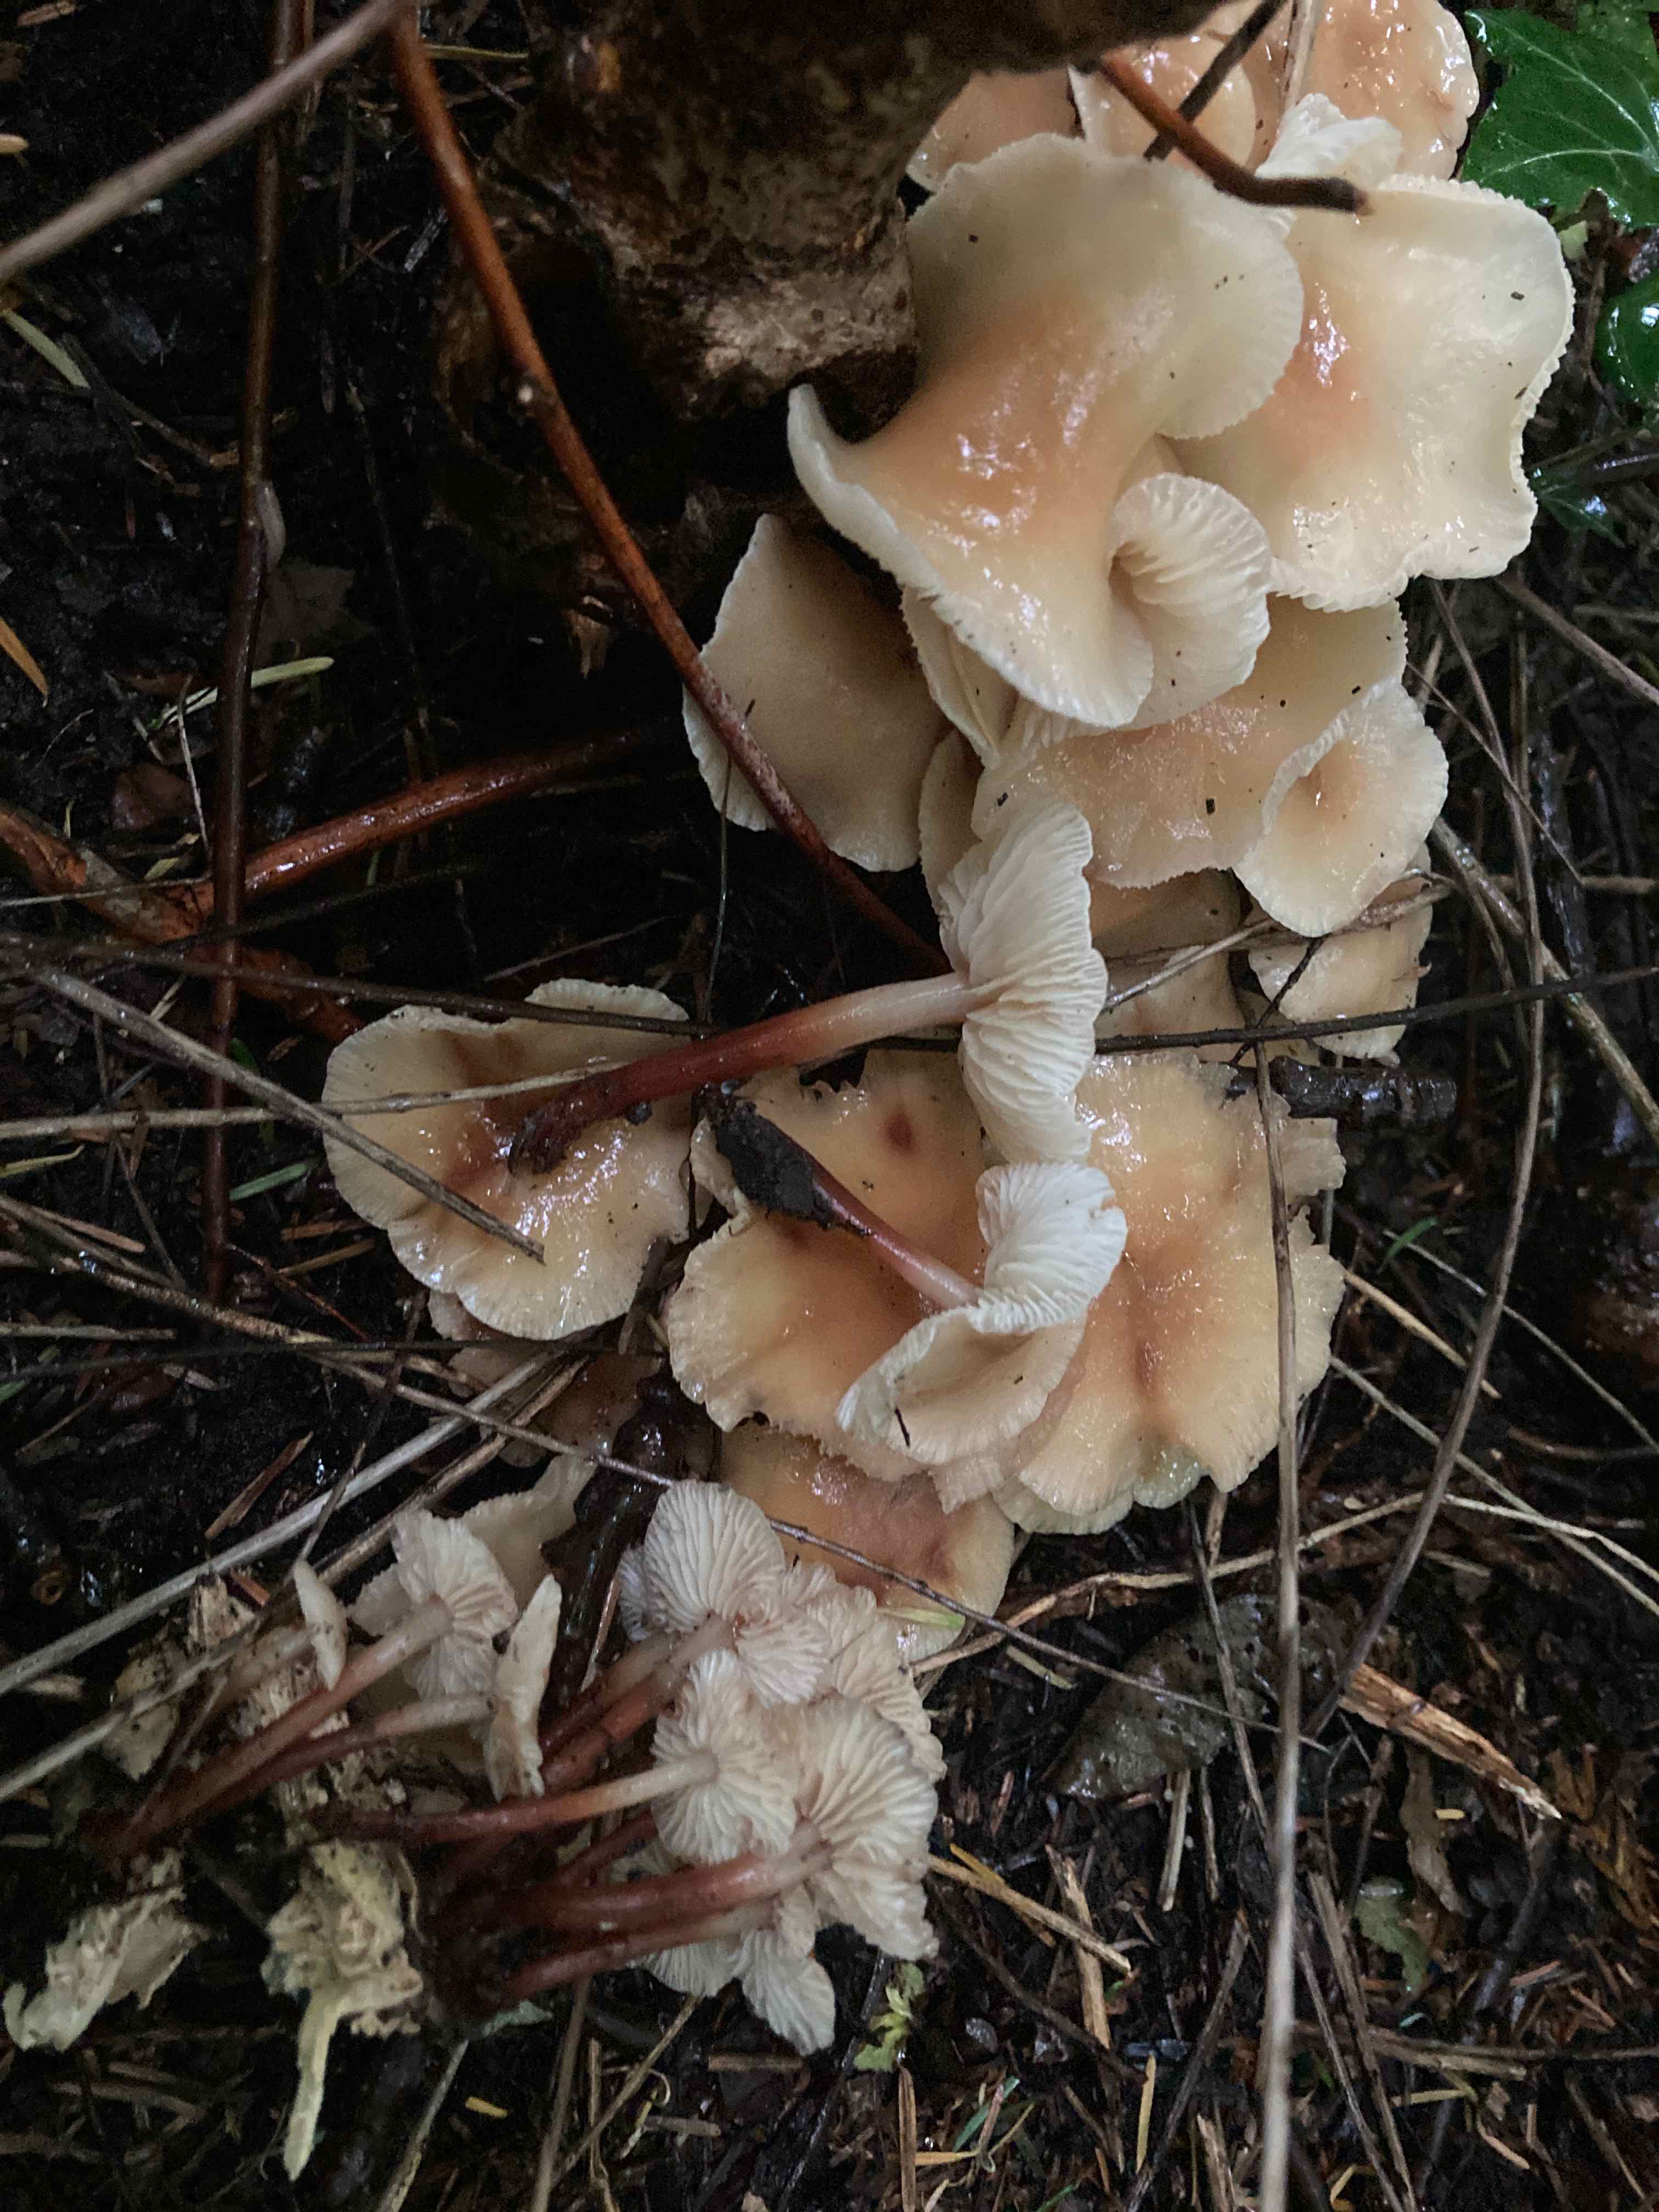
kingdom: Fungi
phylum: Basidiomycota
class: Agaricomycetes
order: Agaricales
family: Omphalotaceae
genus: Gymnopus
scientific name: Gymnopus erythropus
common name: rødstokket fladhat
